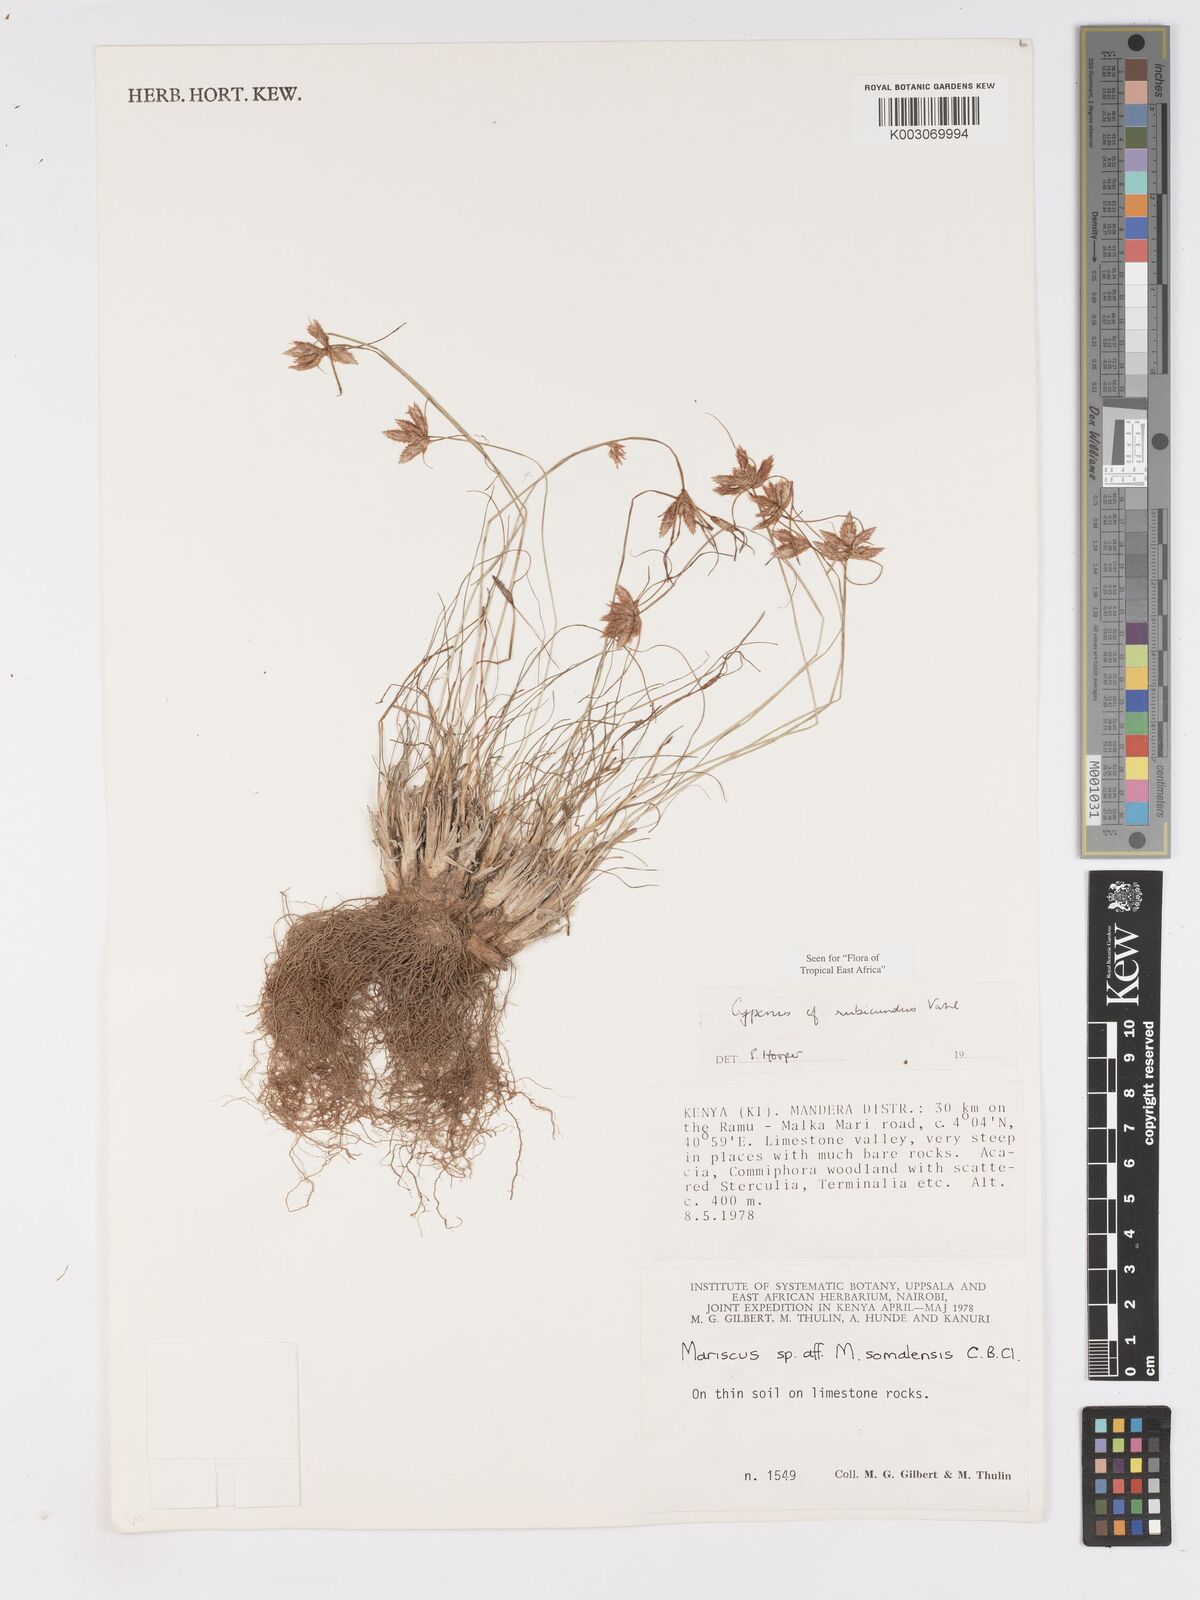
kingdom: Plantae
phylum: Tracheophyta
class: Liliopsida
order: Poales
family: Cyperaceae
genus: Cyperus
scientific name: Cyperus rubicundus
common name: Coco-grass
